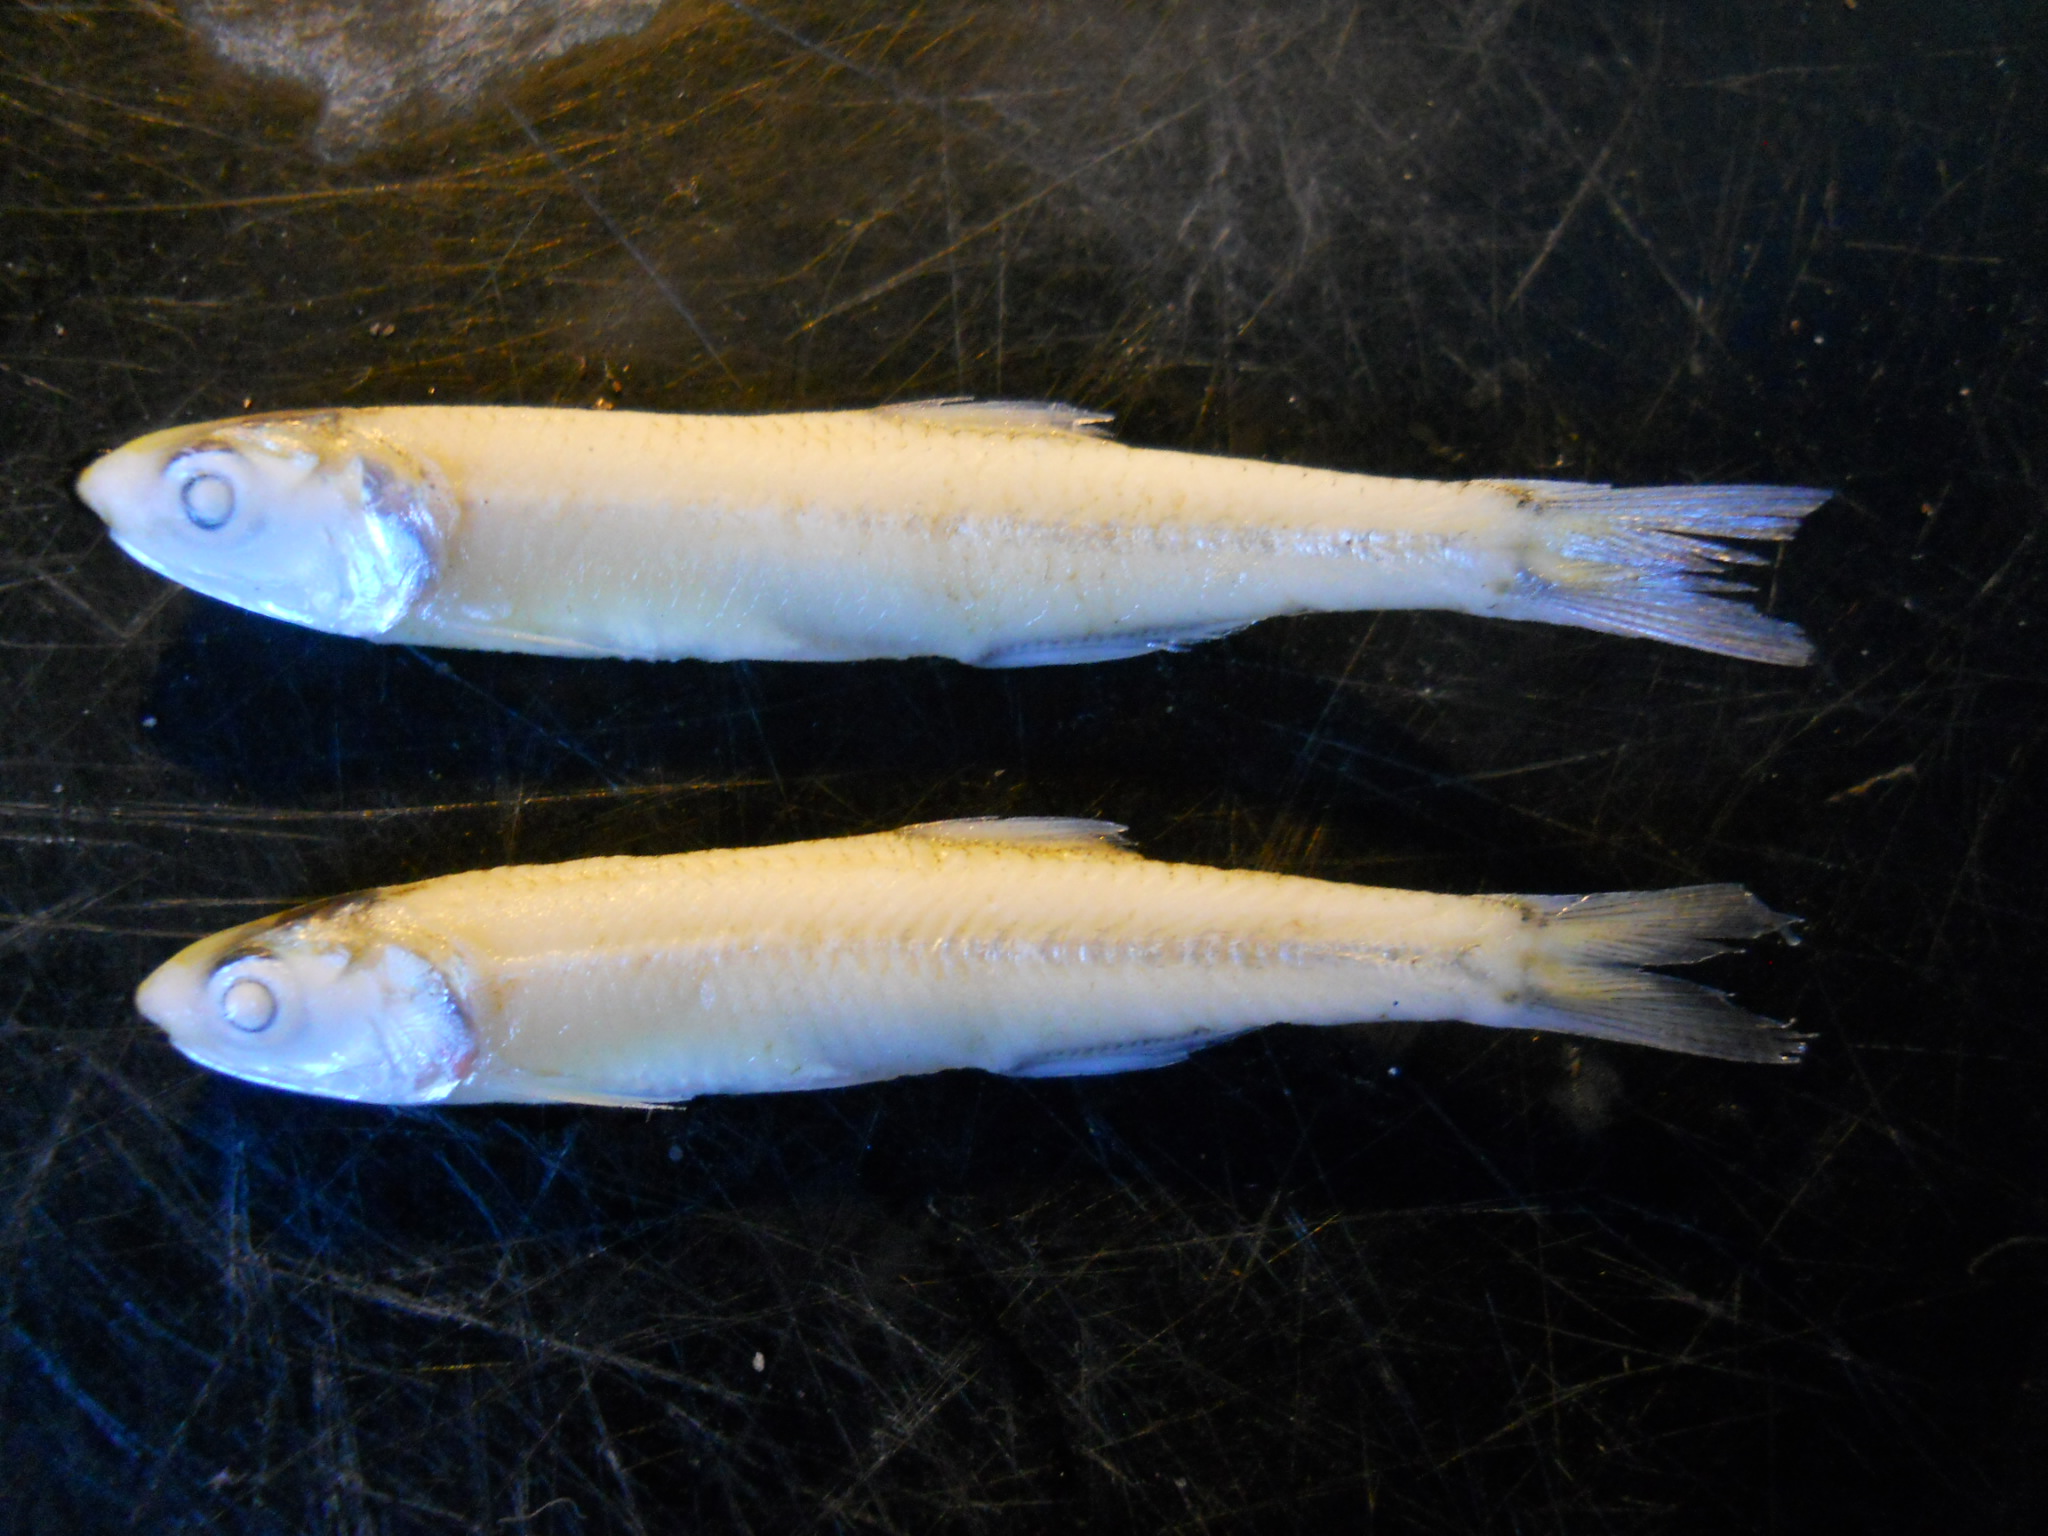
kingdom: Animalia
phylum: Chordata
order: Clupeiformes
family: Engraulidae
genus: Stolephorus
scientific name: Stolephorus indicus
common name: Indian anchovy
